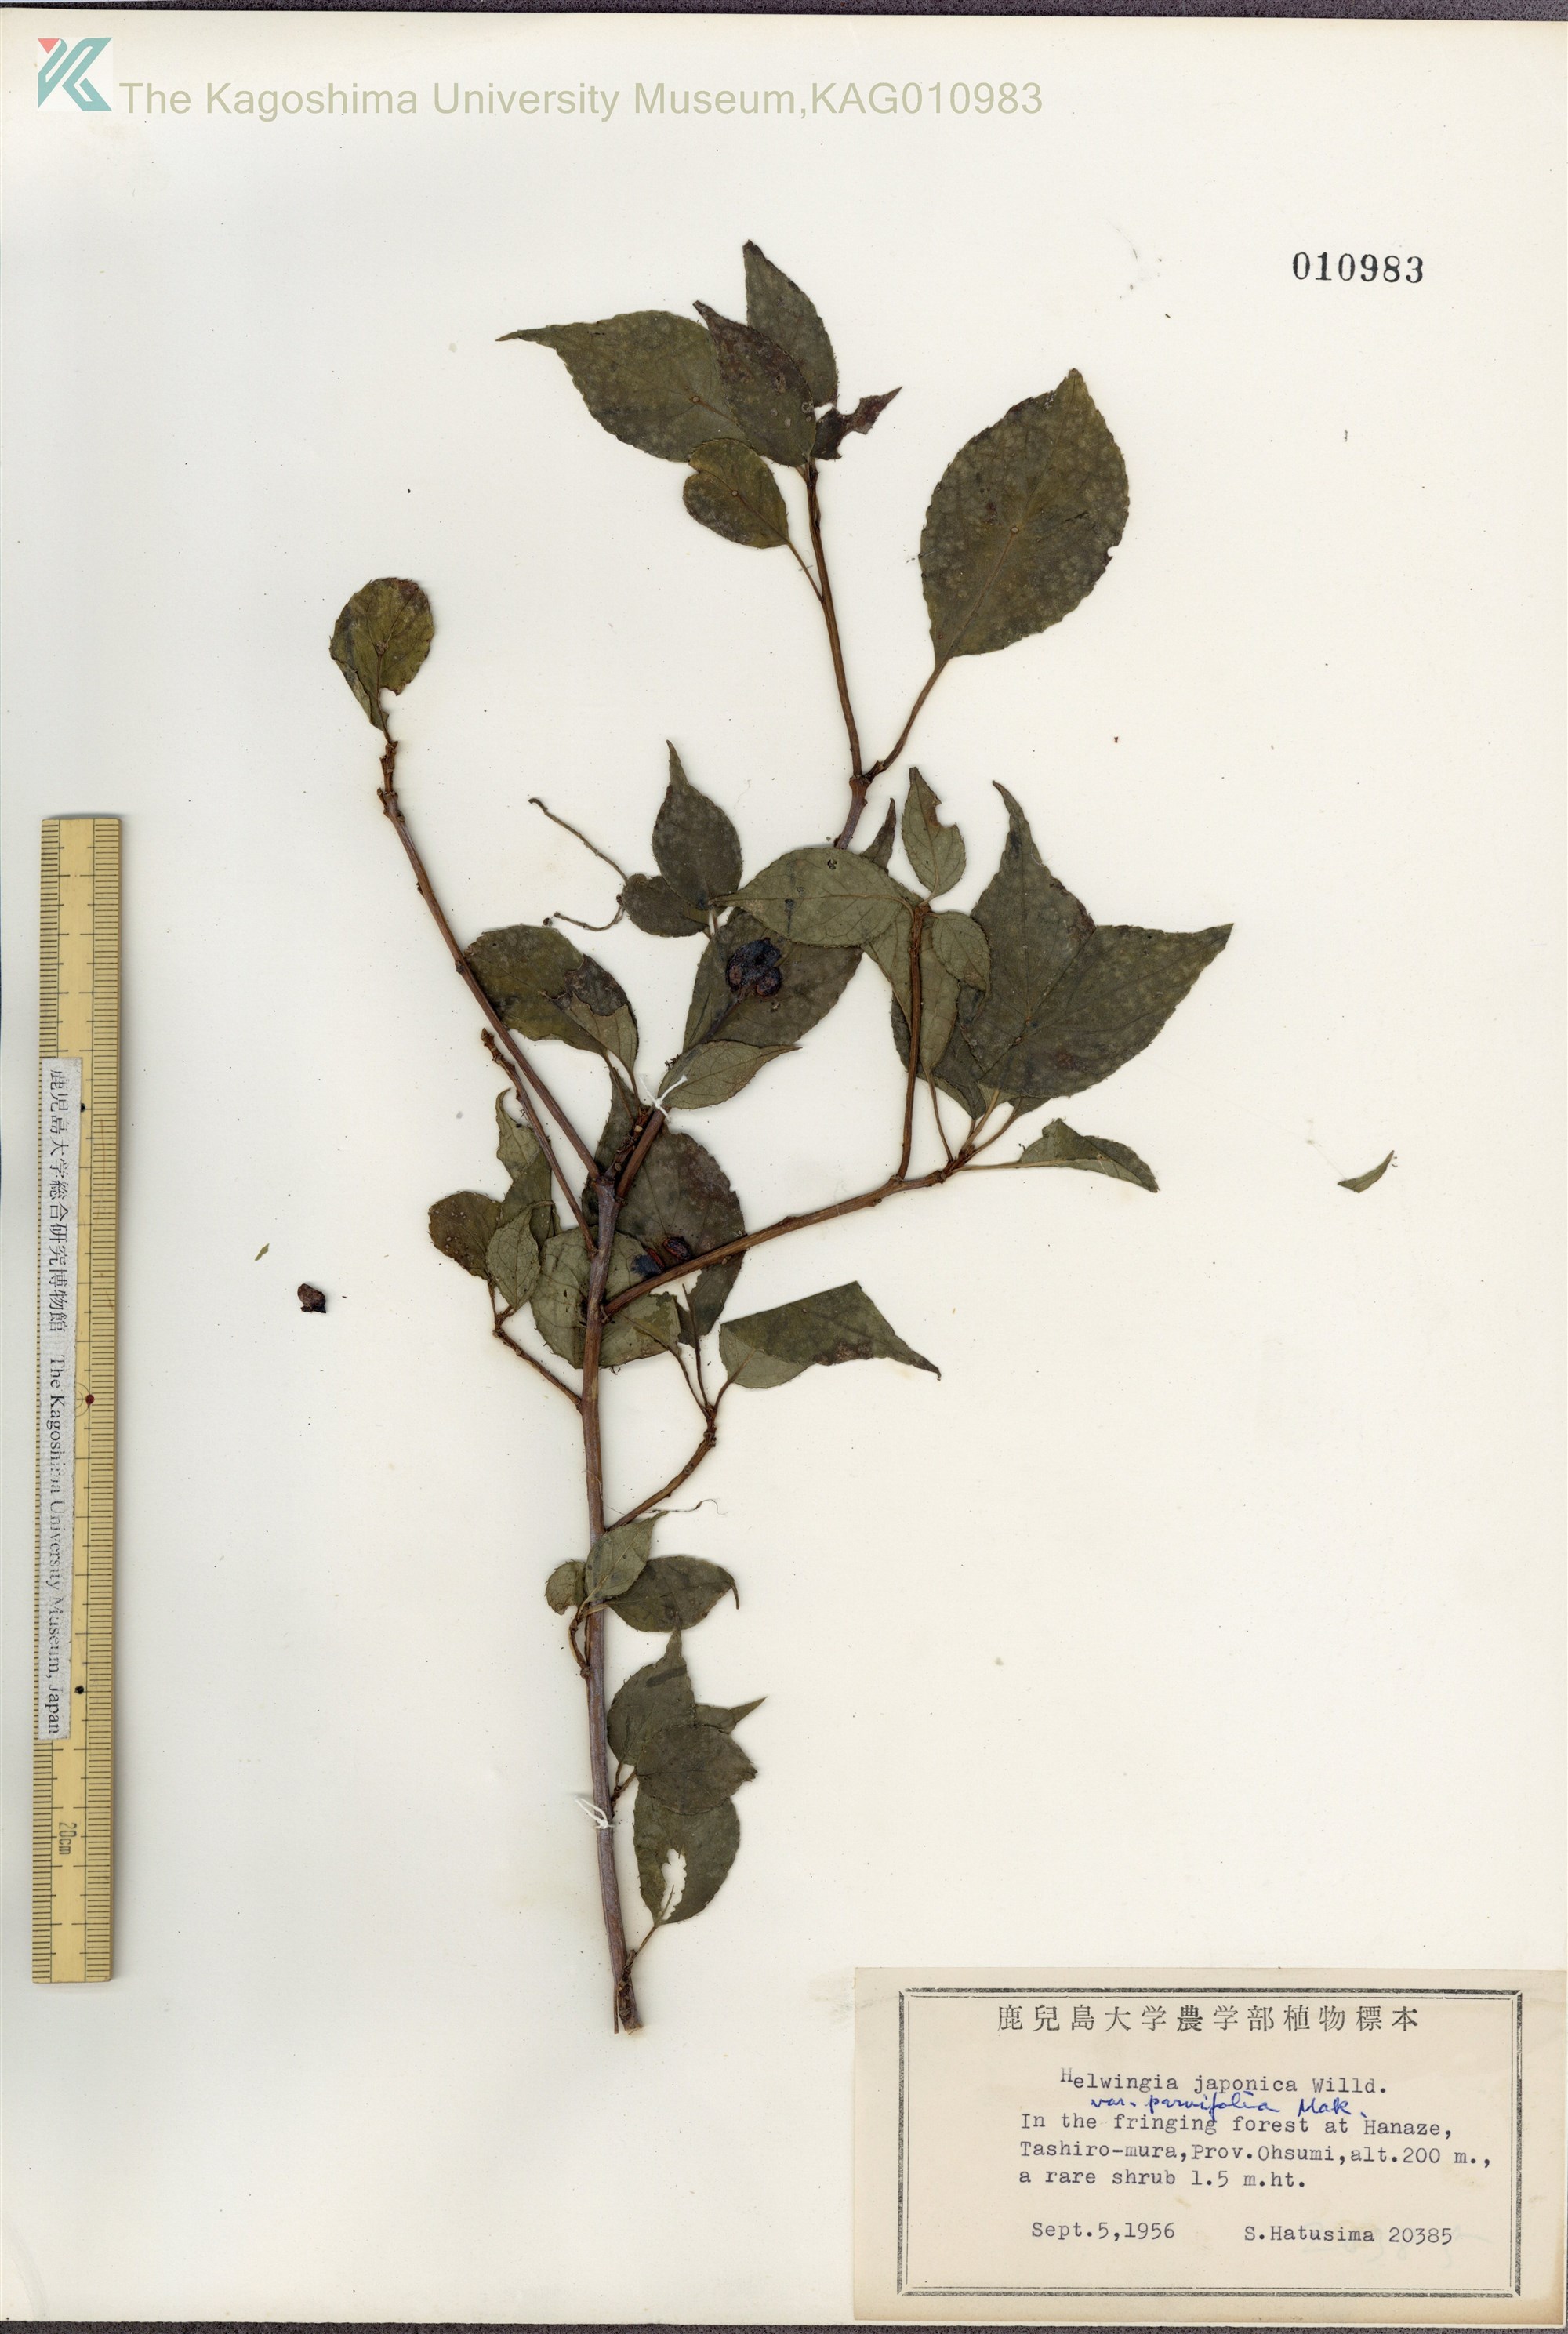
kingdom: Plantae
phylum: Tracheophyta
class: Magnoliopsida
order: Aquifoliales
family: Helwingiaceae
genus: Helwingia
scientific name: Helwingia japonica
